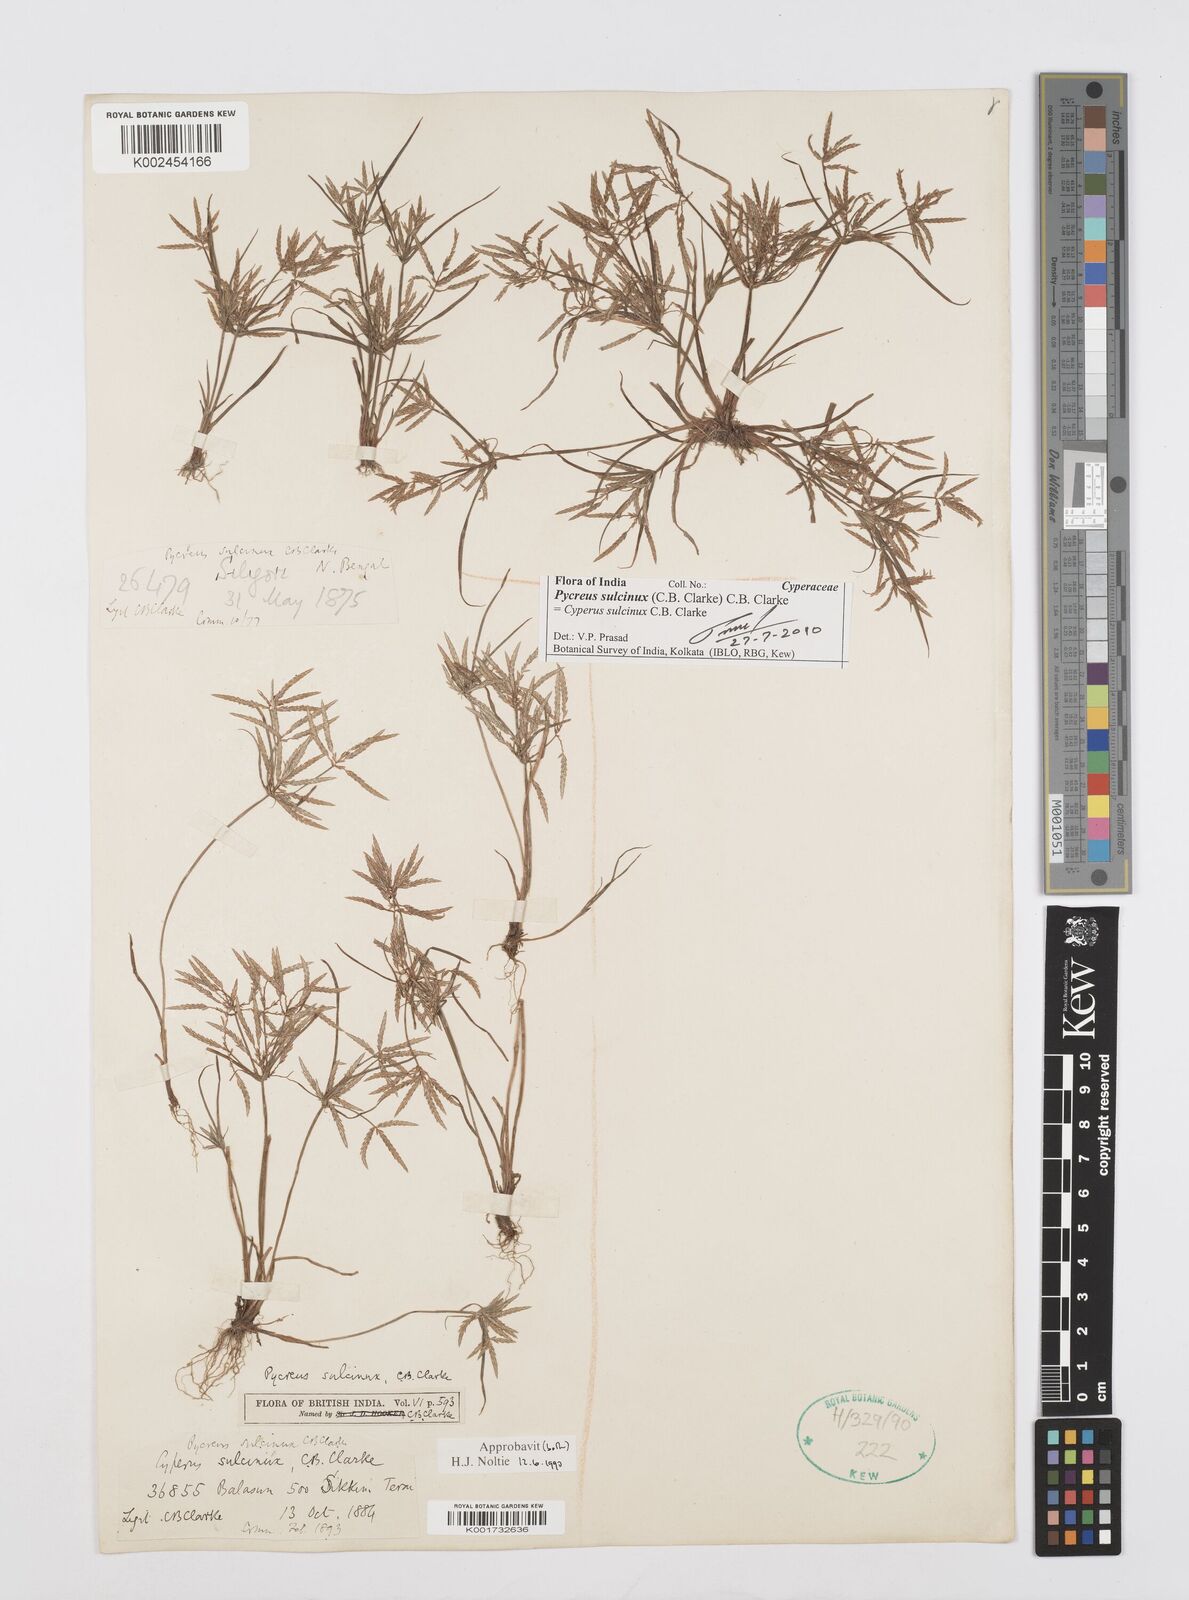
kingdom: Plantae
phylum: Tracheophyta
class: Liliopsida
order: Poales
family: Cyperaceae
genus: Cyperus
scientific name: Cyperus sulcinux
